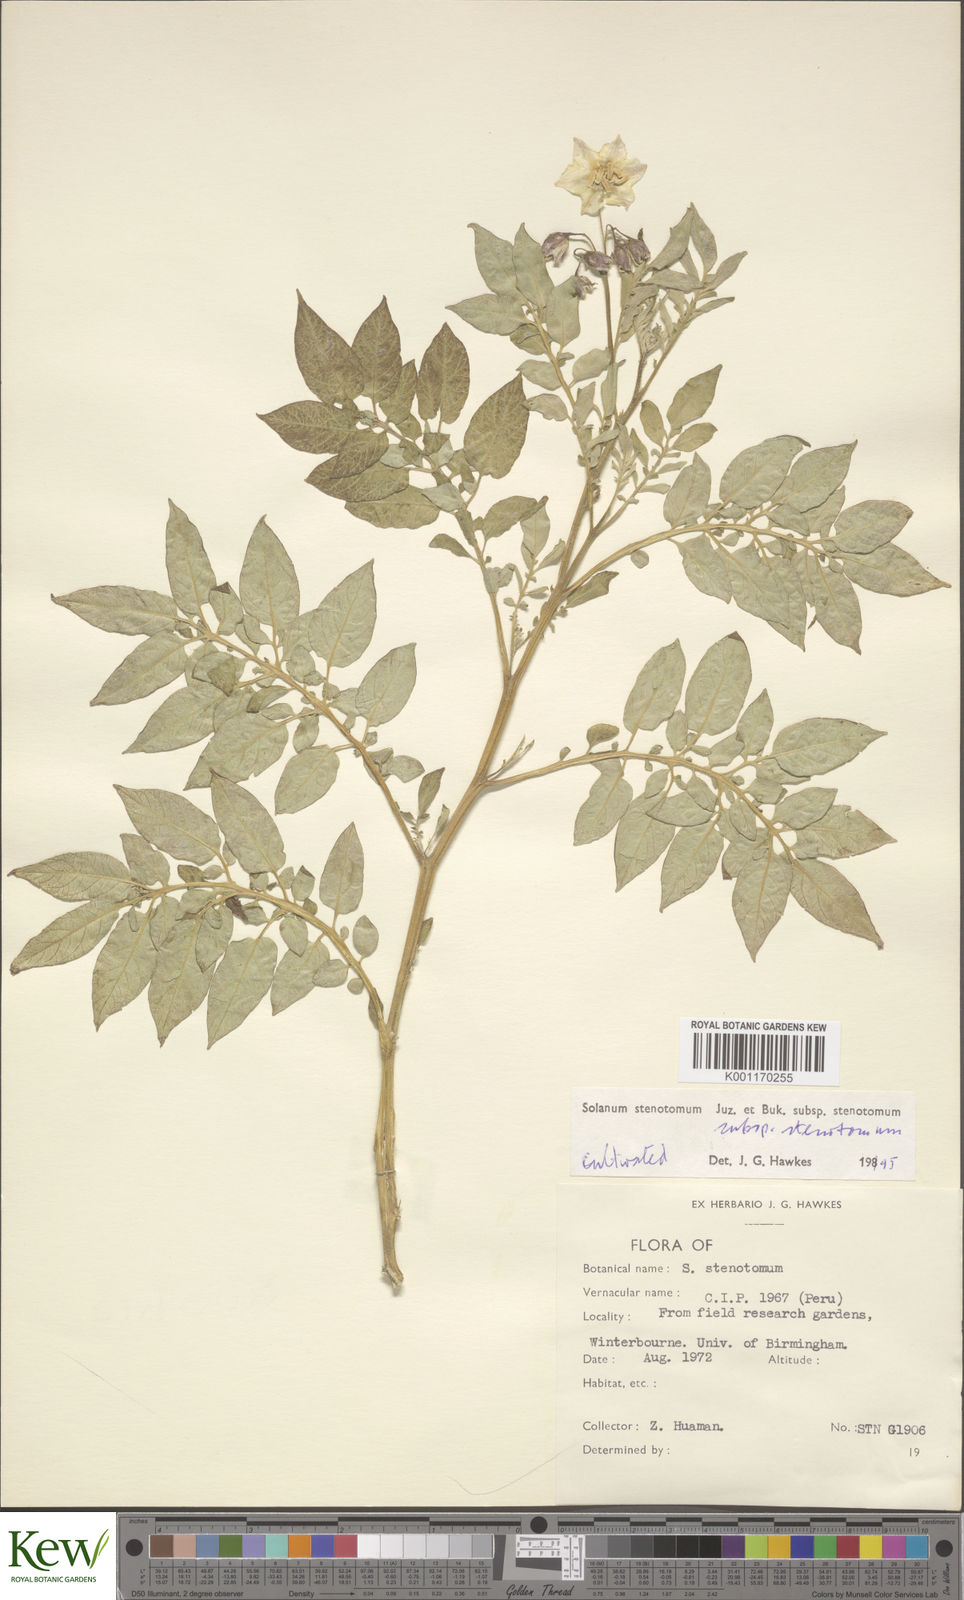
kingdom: Plantae
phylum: Tracheophyta
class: Magnoliopsida
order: Solanales
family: Solanaceae
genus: Solanum
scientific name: Solanum tuberosum
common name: Potato
